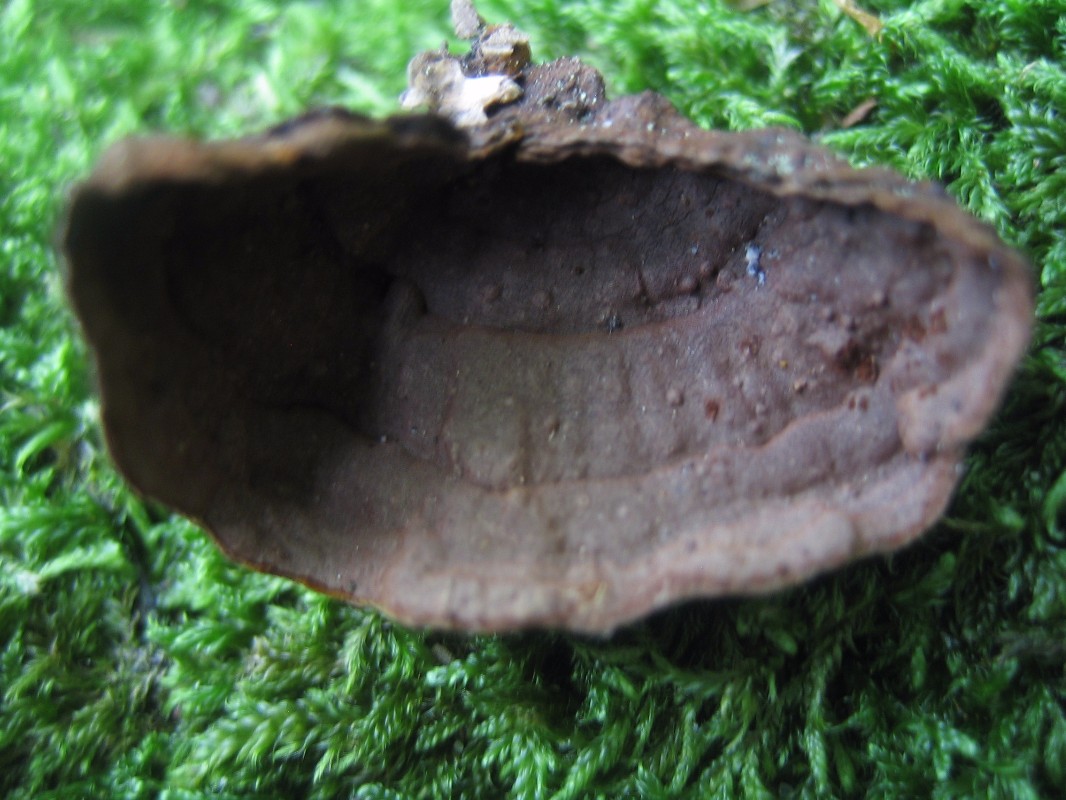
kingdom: Fungi
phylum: Basidiomycota
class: Agaricomycetes
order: Hymenochaetales
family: Hymenochaetaceae
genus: Hymenochaete
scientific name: Hymenochaete rubiginosa
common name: stiv ruslædersvamp
